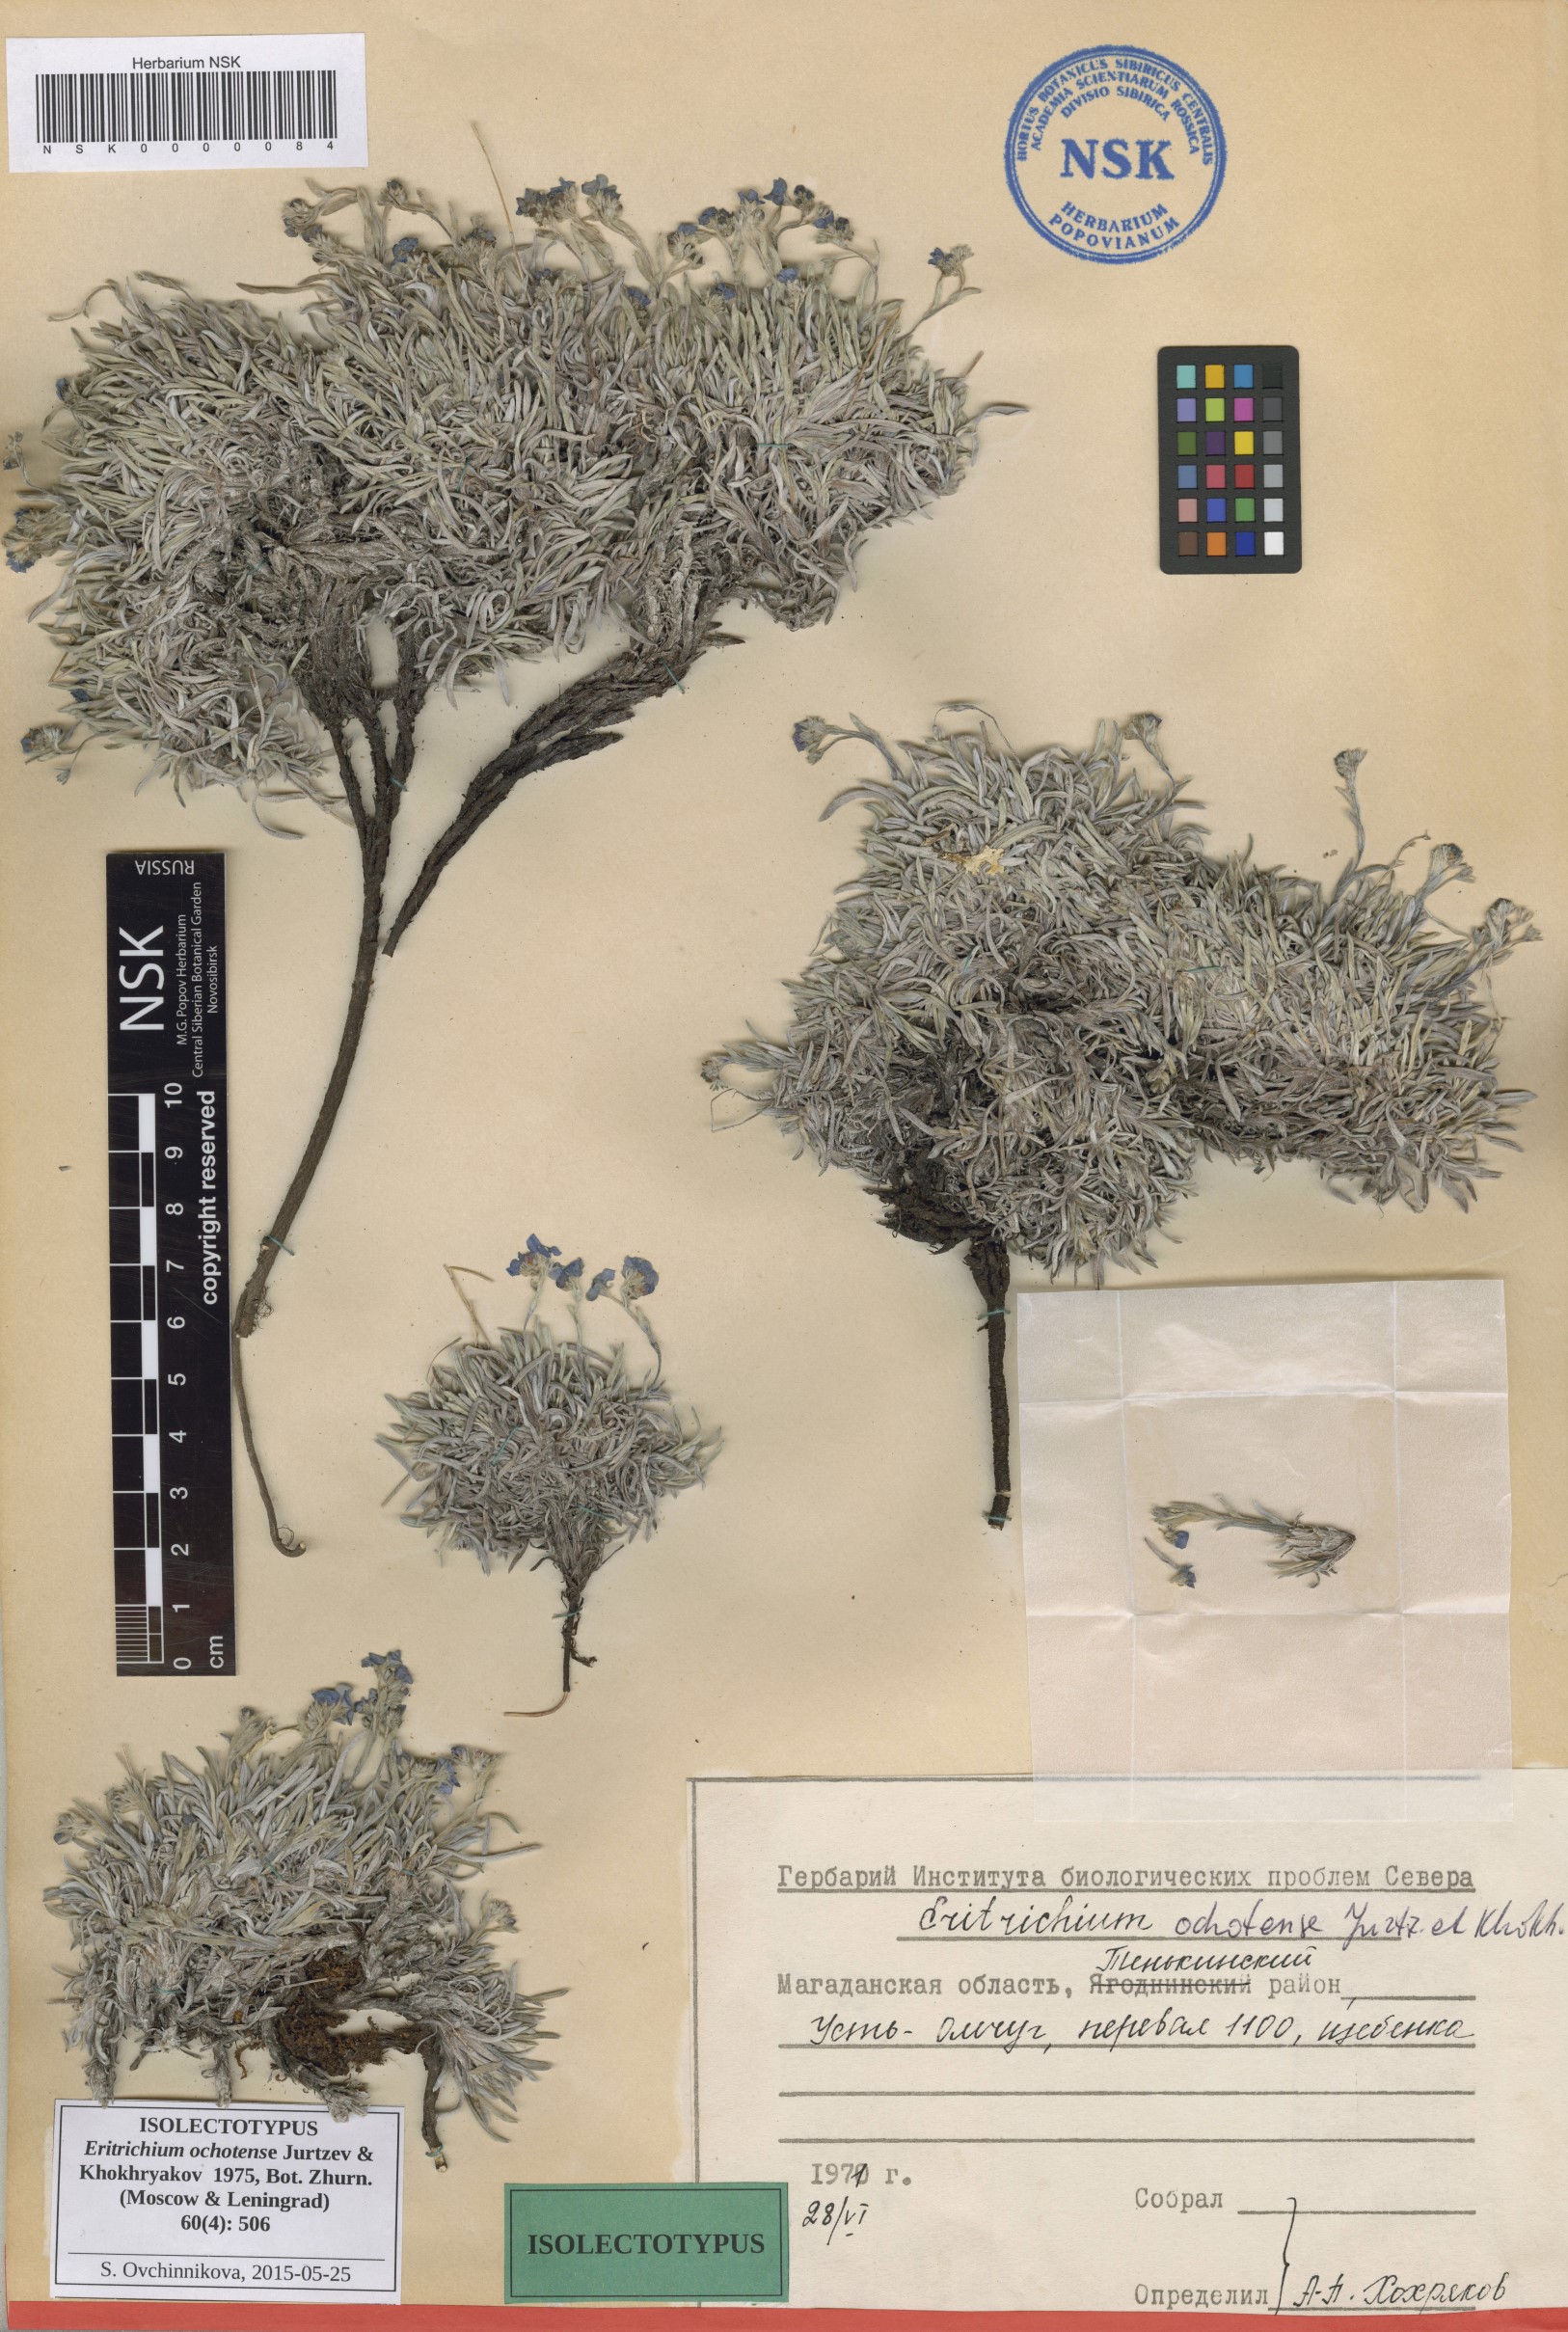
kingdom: Plantae
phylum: Tracheophyta
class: Magnoliopsida
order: Boraginales
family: Boraginaceae
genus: Eritrichium
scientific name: Eritrichium ochotense
